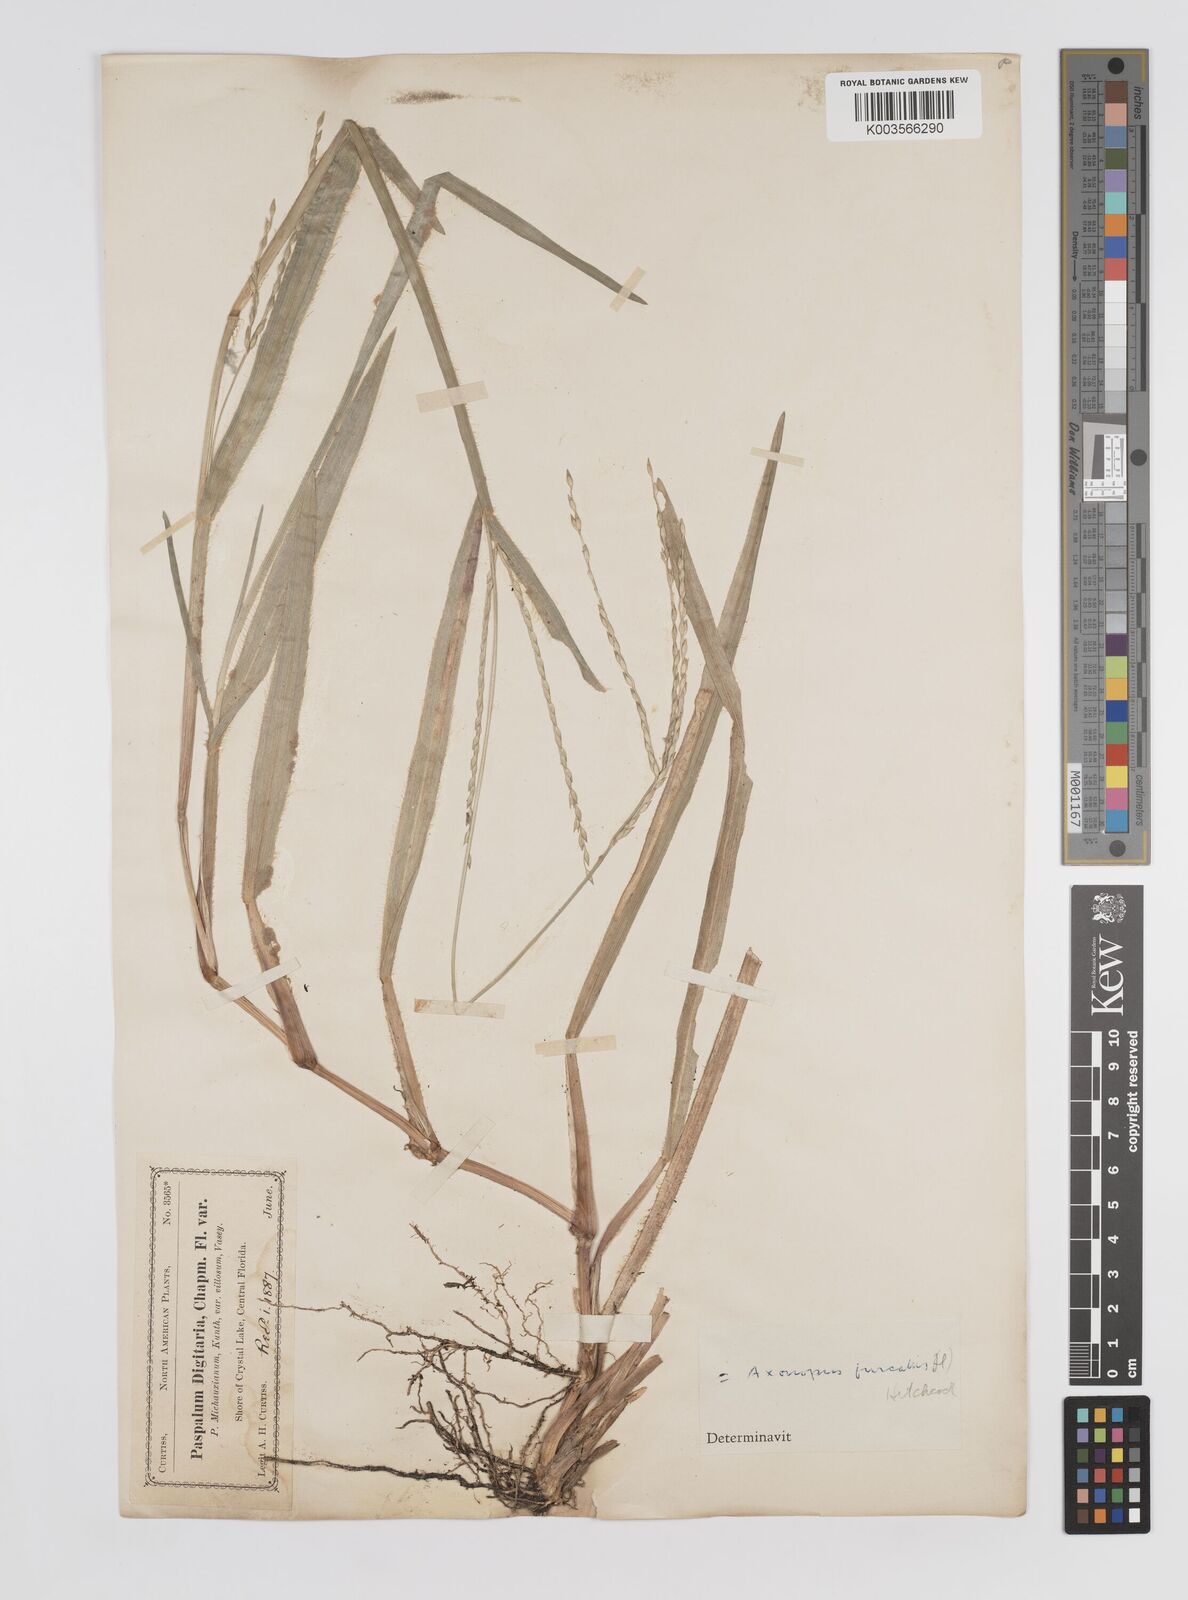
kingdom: Plantae
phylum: Tracheophyta
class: Liliopsida
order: Poales
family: Poaceae
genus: Axonopus
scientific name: Axonopus furcatus
